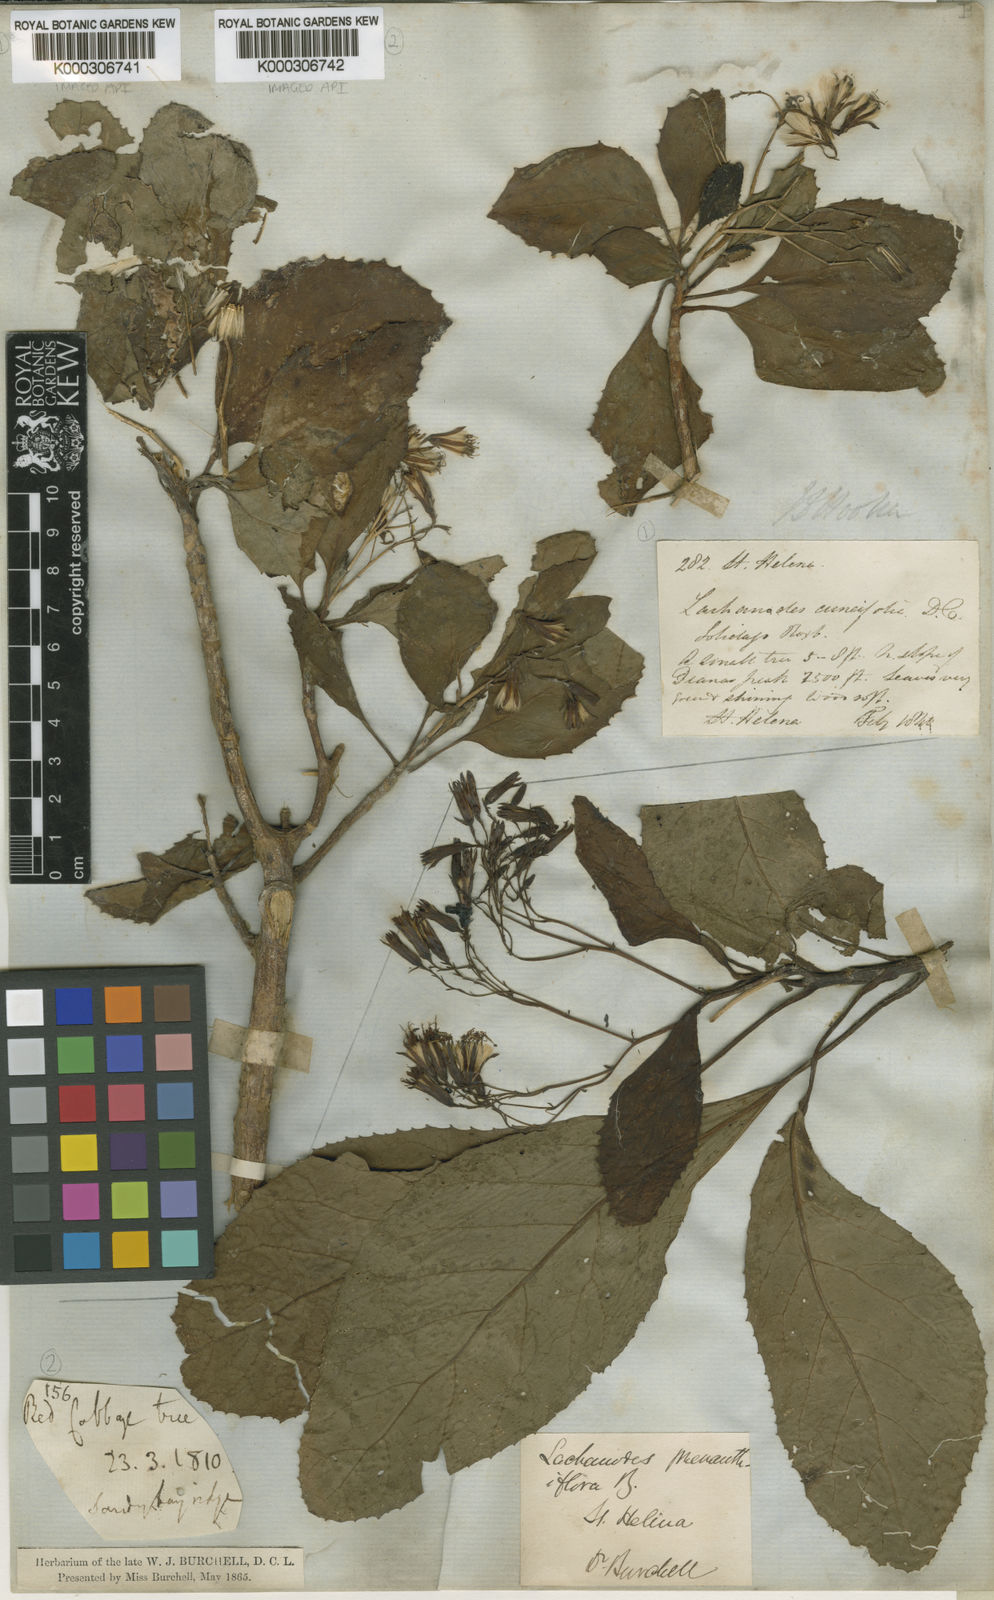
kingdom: Plantae
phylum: Tracheophyta
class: Magnoliopsida
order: Asterales
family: Asteraceae
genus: Lachanodes
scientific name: Lachanodes arborea
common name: She cabbage tree
